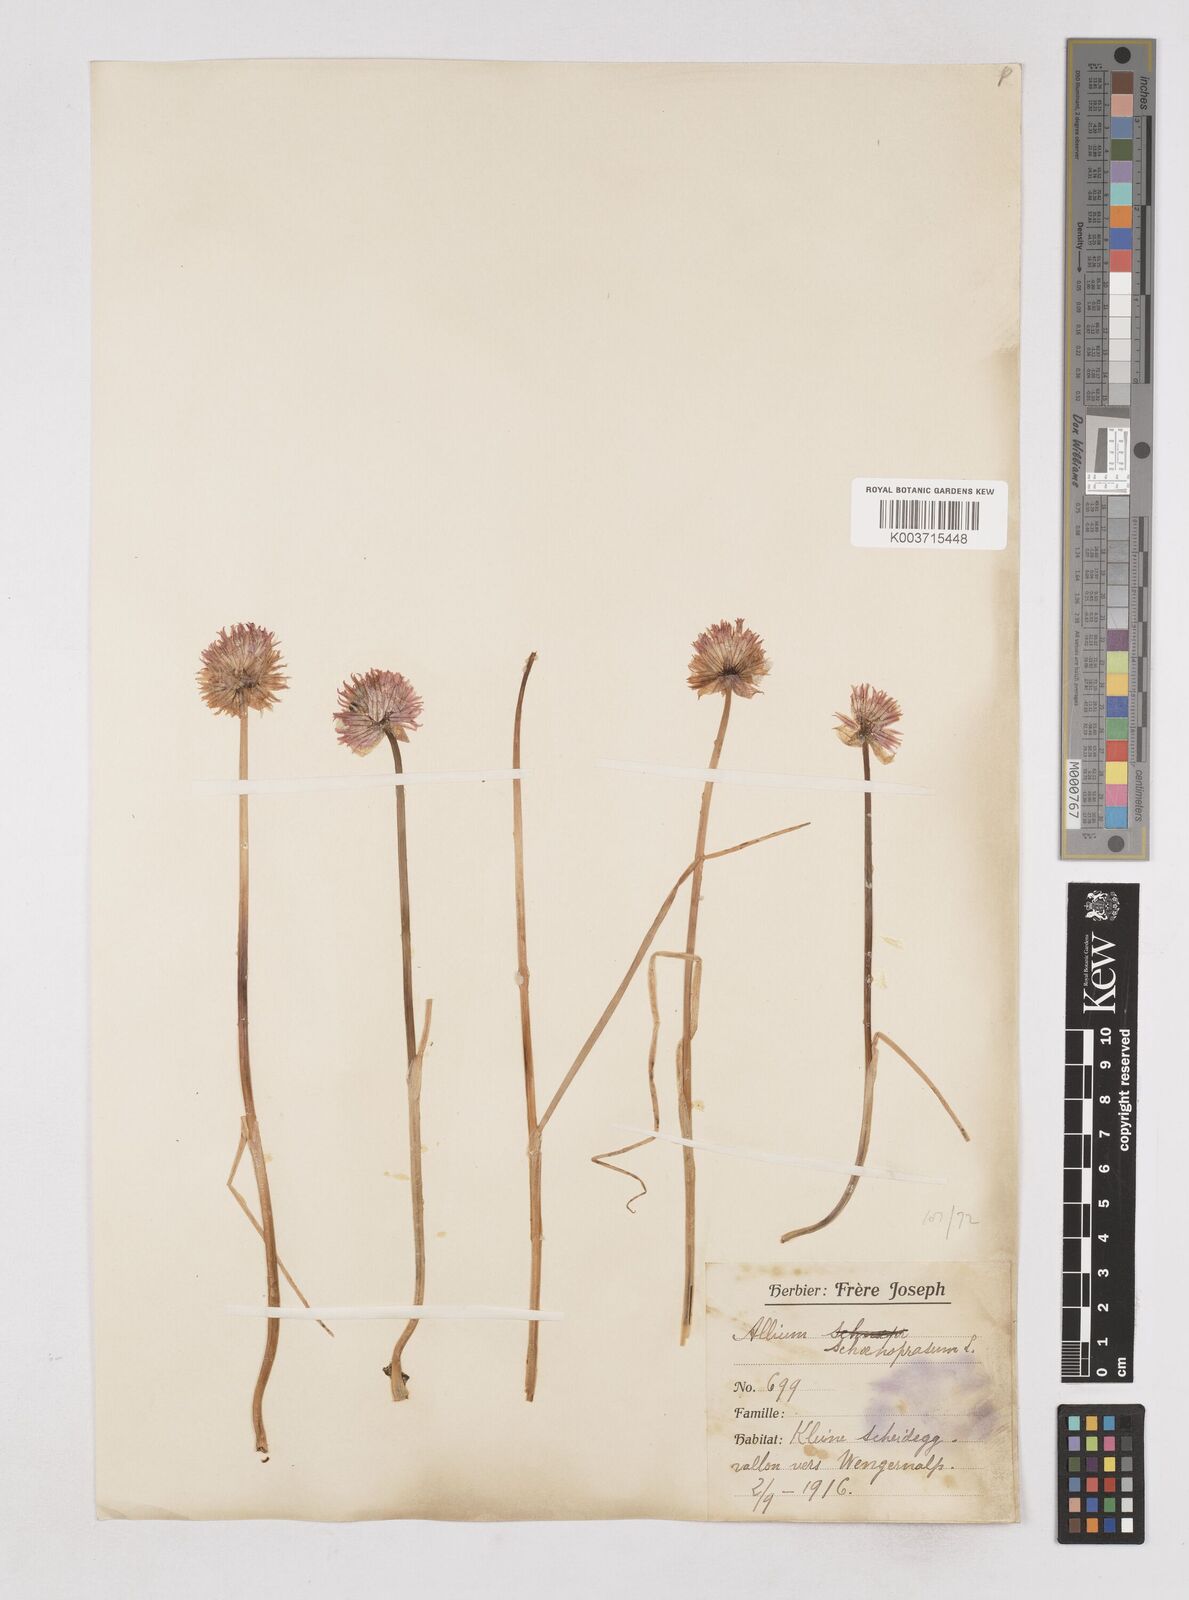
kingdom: Plantae
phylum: Tracheophyta
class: Liliopsida
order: Asparagales
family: Amaryllidaceae
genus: Allium
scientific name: Allium schoenoprasum
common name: Chives
